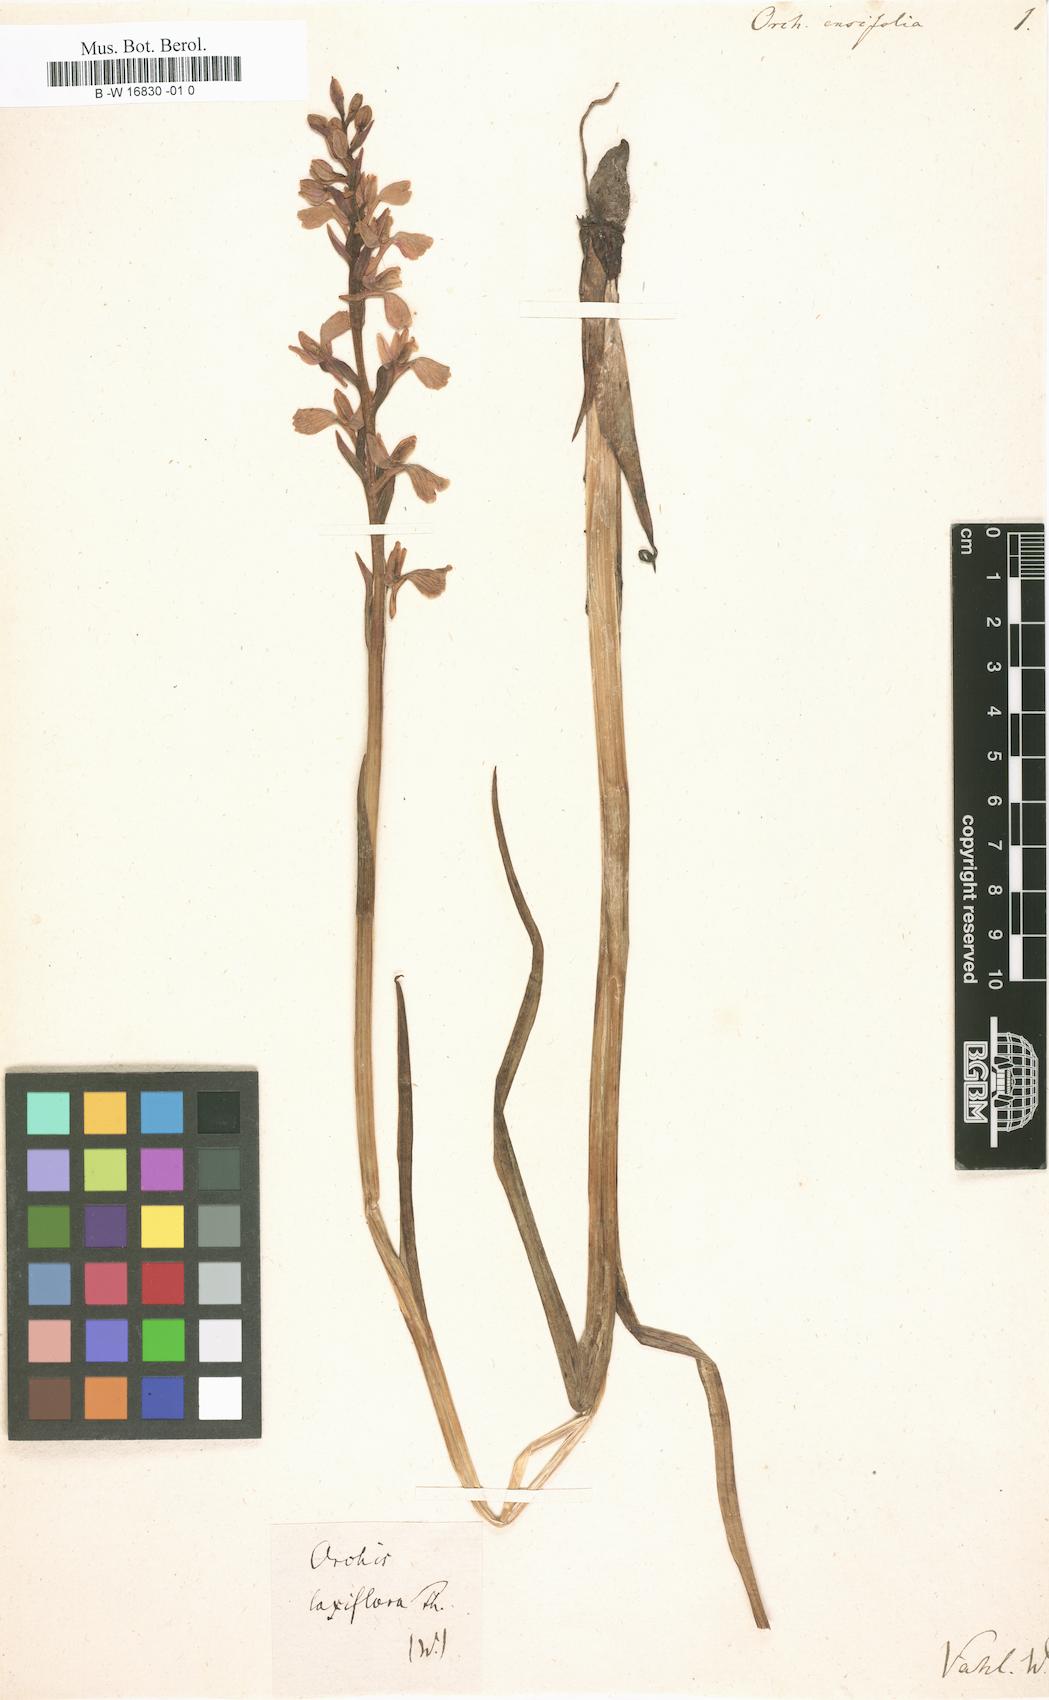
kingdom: Plantae
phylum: Tracheophyta
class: Liliopsida
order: Asparagales
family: Orchidaceae
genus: Anacamptis
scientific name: Anacamptis laxiflora
